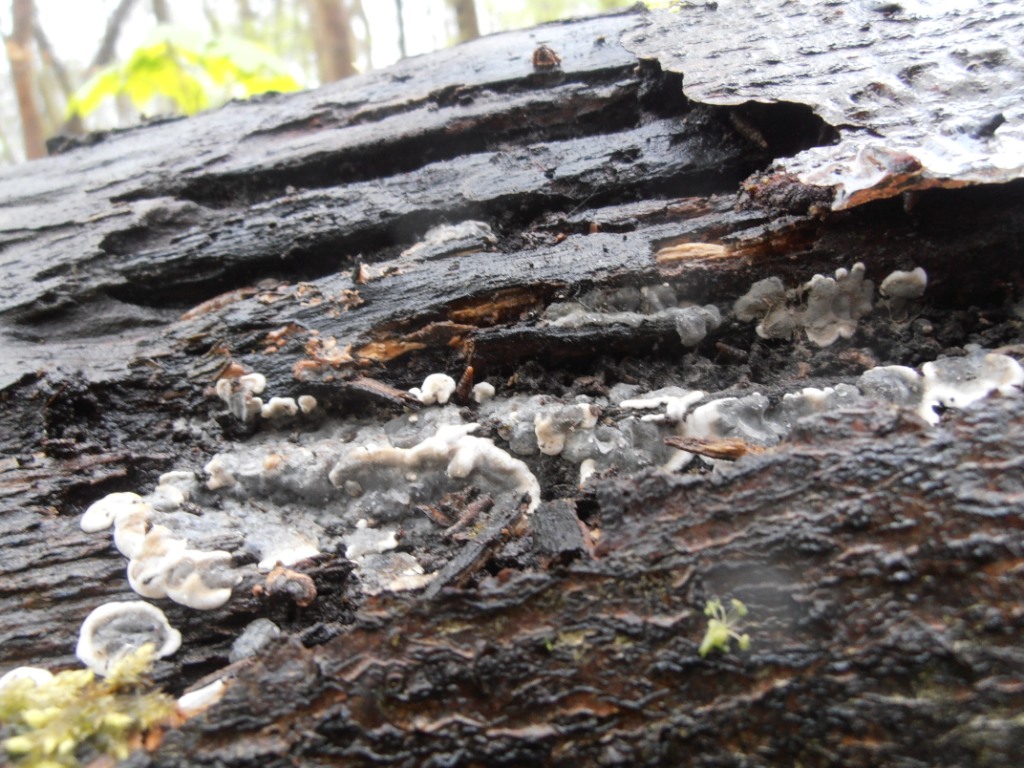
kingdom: Fungi
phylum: Ascomycota
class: Sordariomycetes
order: Xylariales
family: Xylariaceae
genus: Kretzschmaria
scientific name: Kretzschmaria deusta
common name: stor kulsvamp
